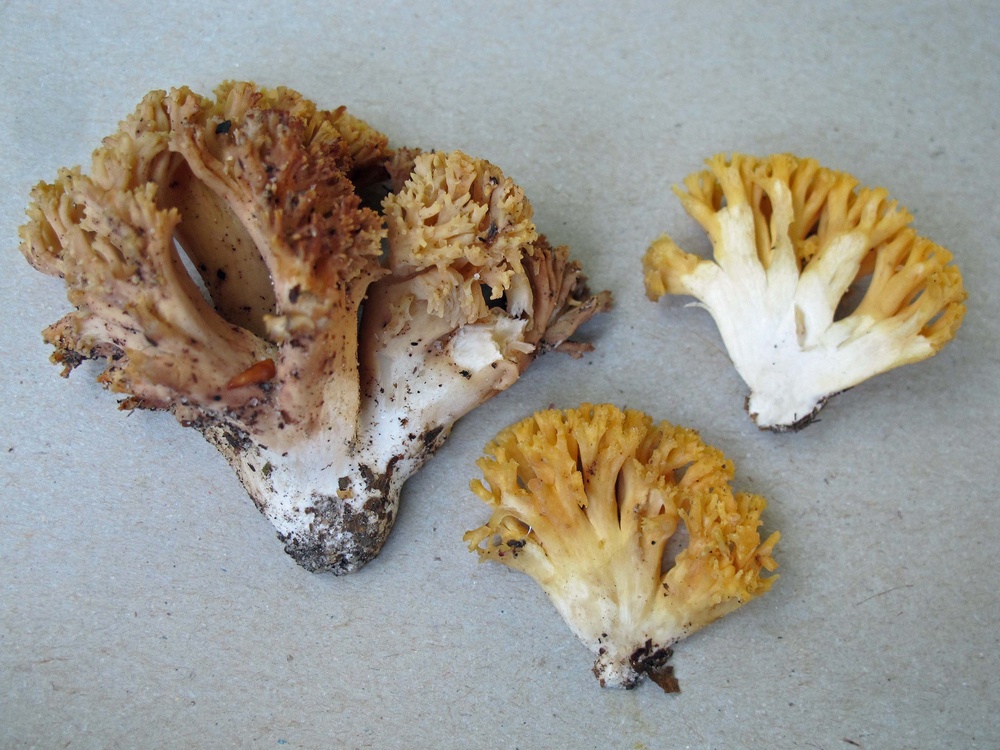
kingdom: Fungi
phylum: Basidiomycota
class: Agaricomycetes
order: Gomphales
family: Gomphaceae
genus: Ramaria
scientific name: Ramaria sanguinea
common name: blodplettet koralsvamp
